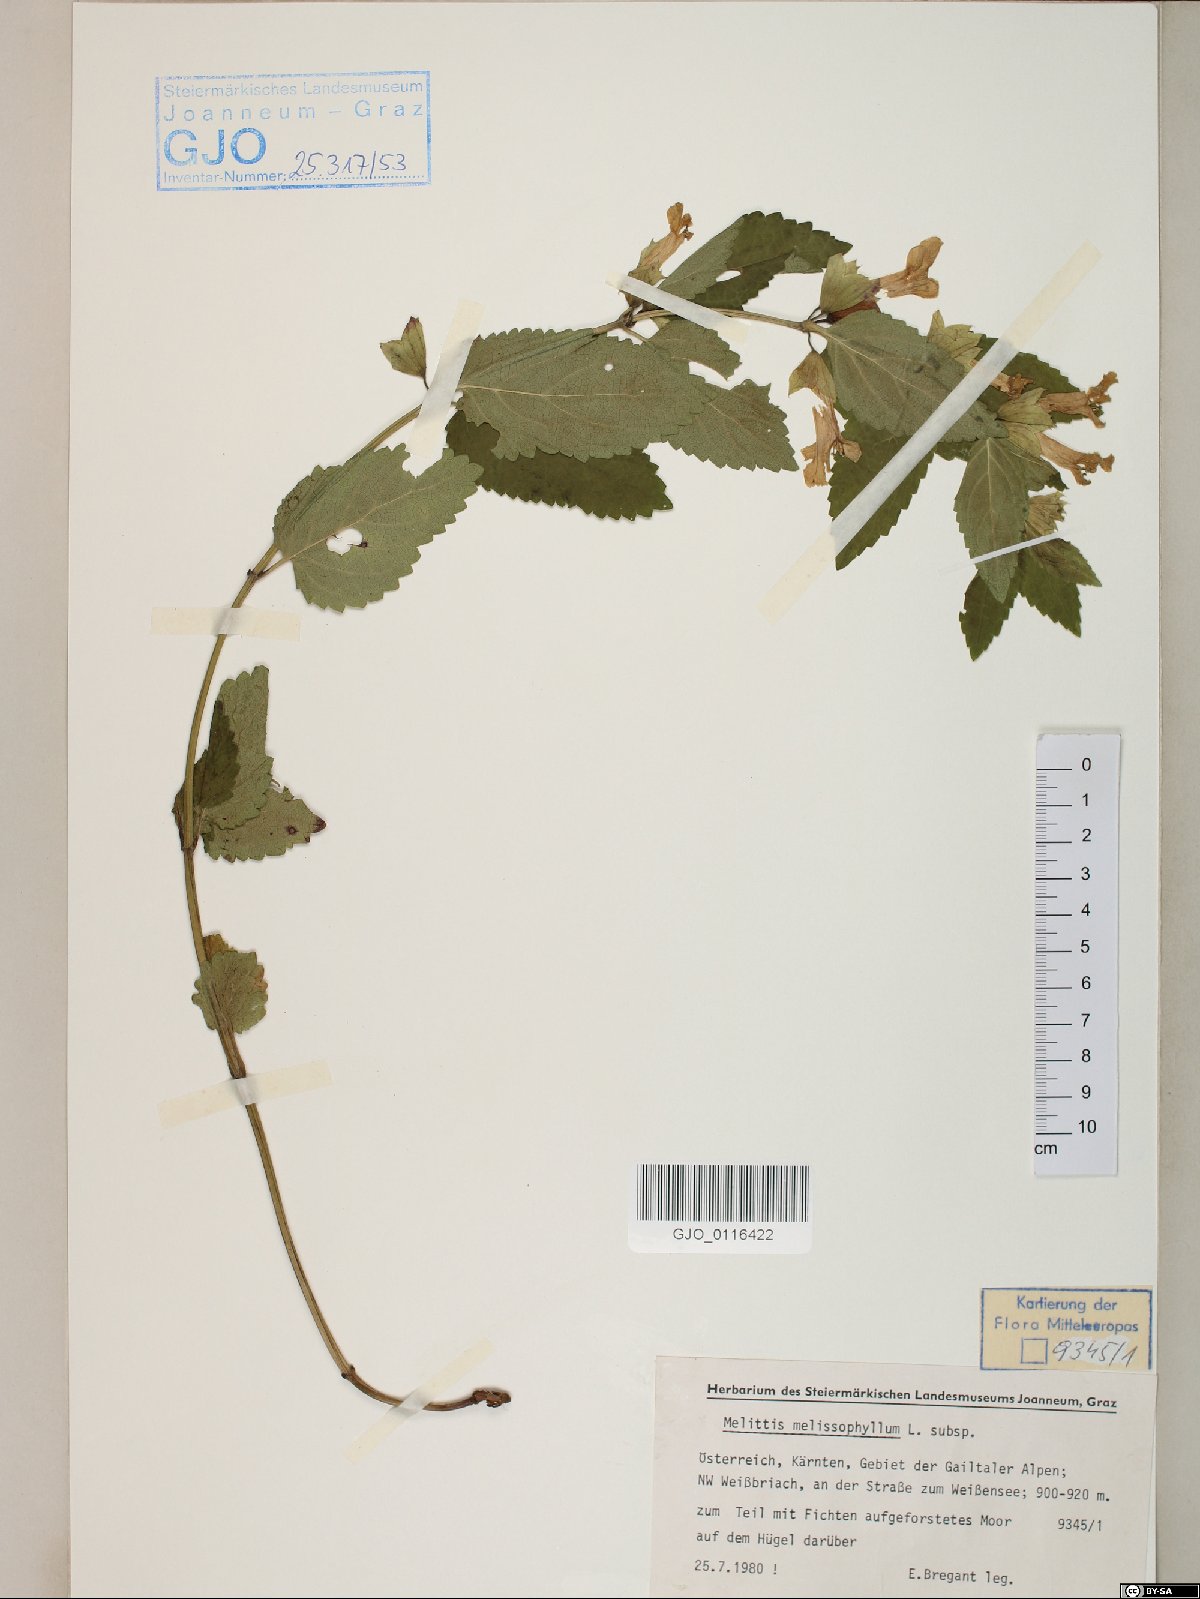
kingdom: Plantae
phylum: Tracheophyta
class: Magnoliopsida
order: Lamiales
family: Lamiaceae
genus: Melittis
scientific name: Melittis melissophyllum
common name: Bastard balm
